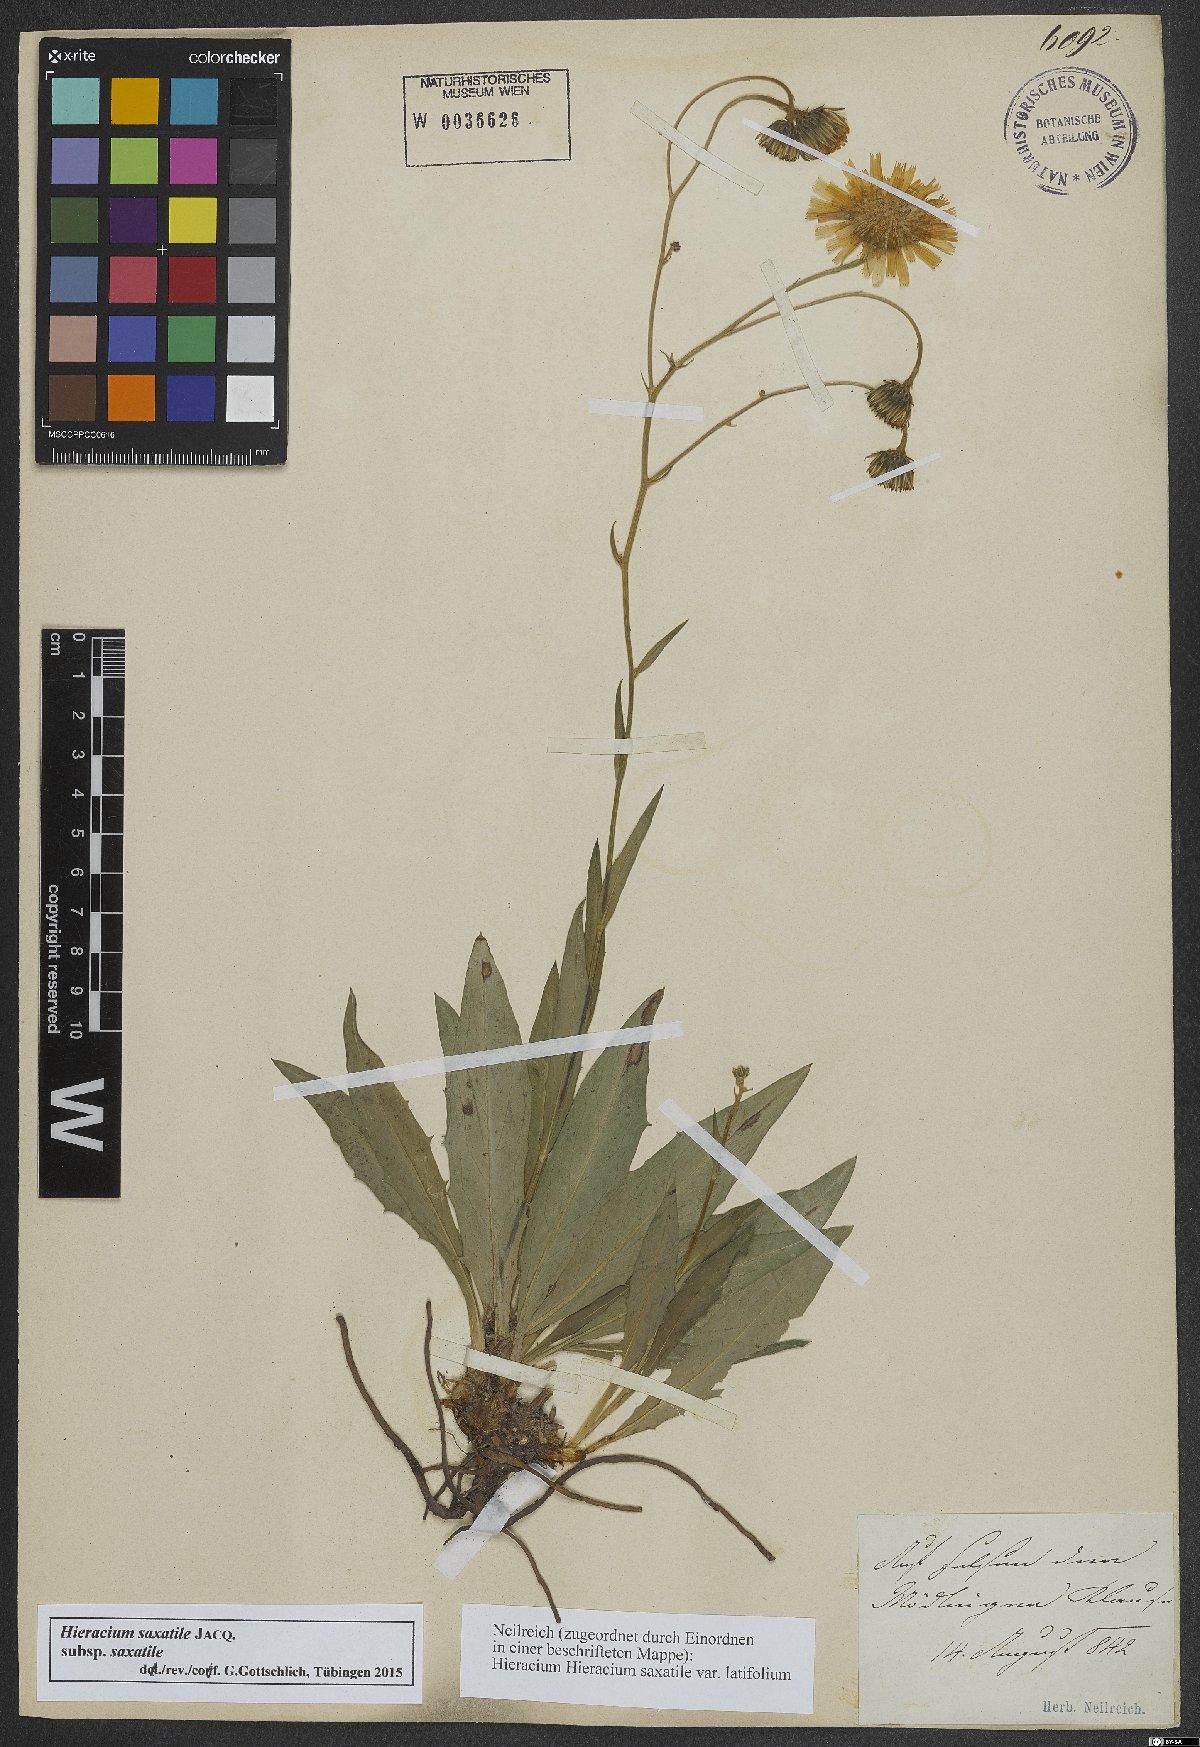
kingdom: Plantae
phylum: Tracheophyta
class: Magnoliopsida
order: Asterales
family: Asteraceae
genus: Hieracium
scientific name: Hieracium saxatile
